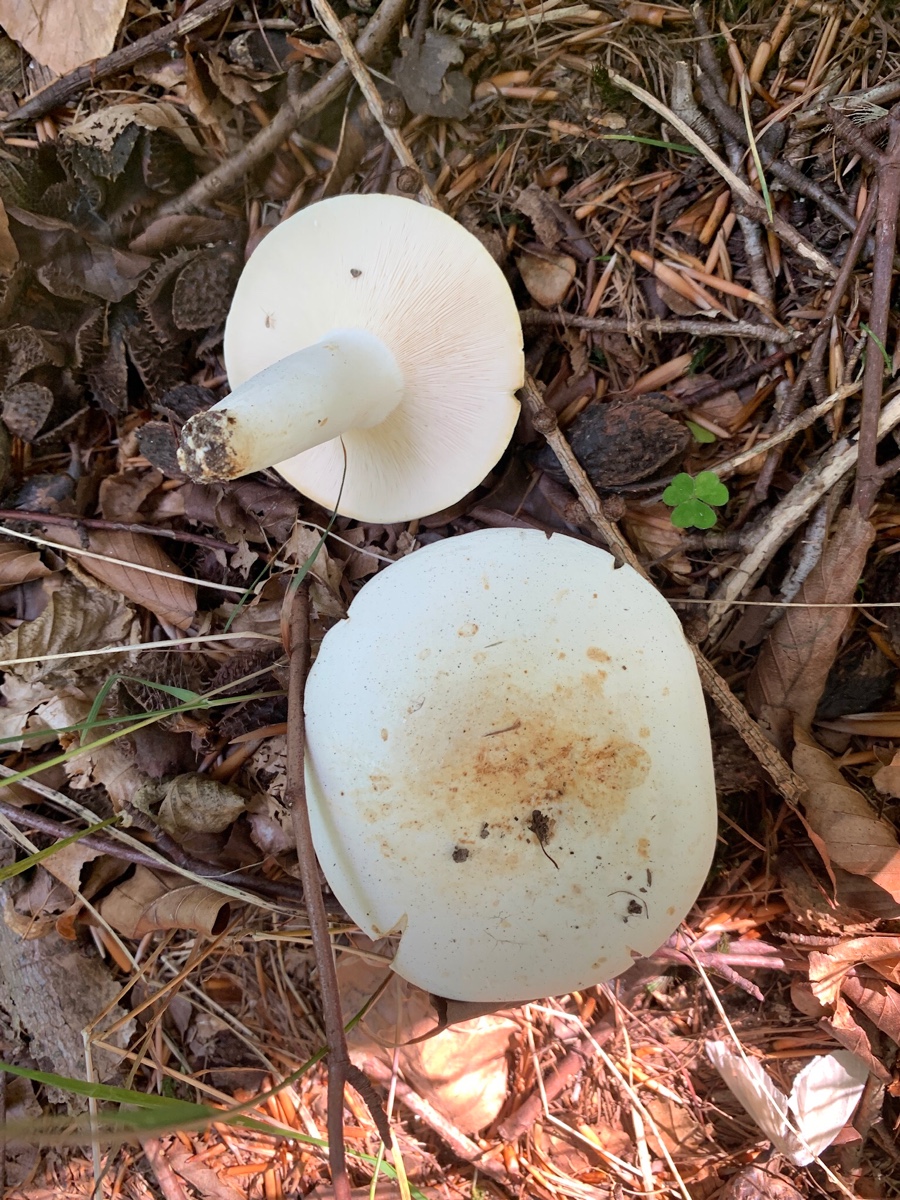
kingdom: Fungi
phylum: Basidiomycota
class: Agaricomycetes
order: Russulales
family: Russulaceae
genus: Lactifluus
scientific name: Lactifluus piperatus
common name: peber-mælkehat
